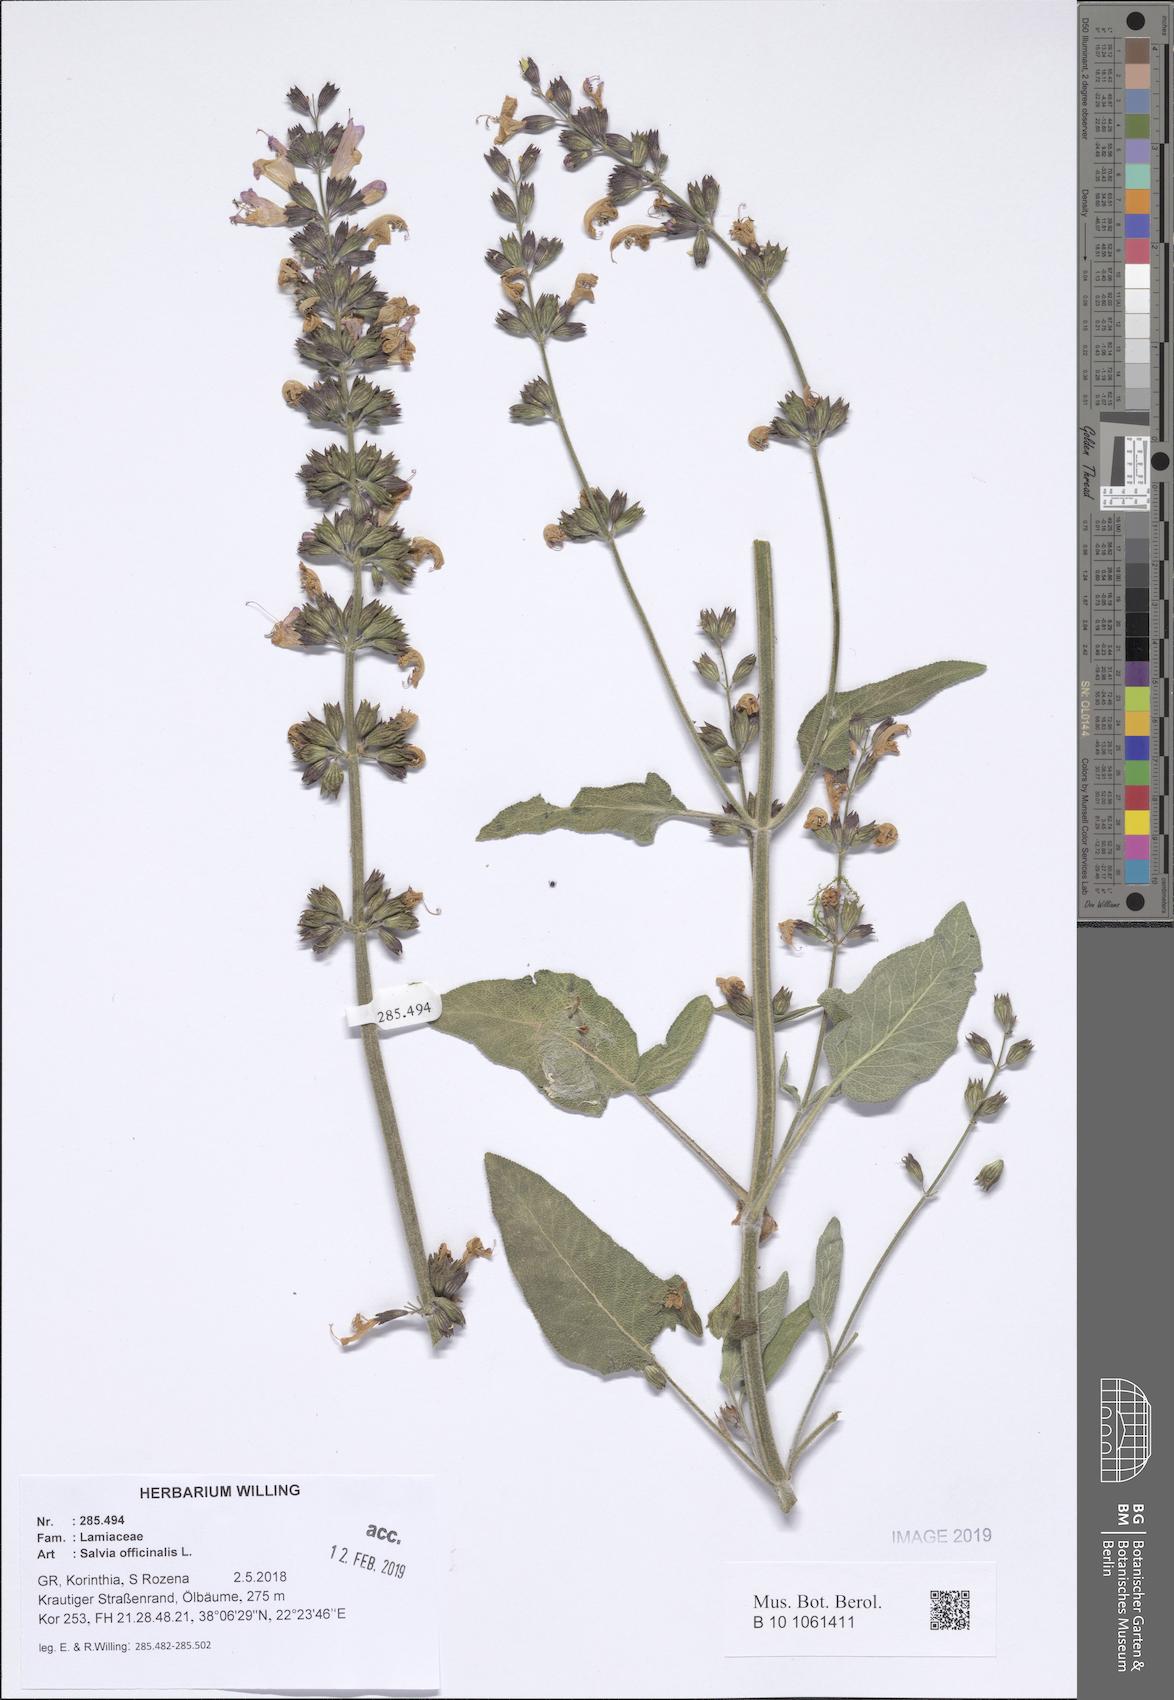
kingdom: Plantae
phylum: Tracheophyta
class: Magnoliopsida
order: Lamiales
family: Lamiaceae
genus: Salvia
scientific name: Salvia fruticosa
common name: Greek sage
